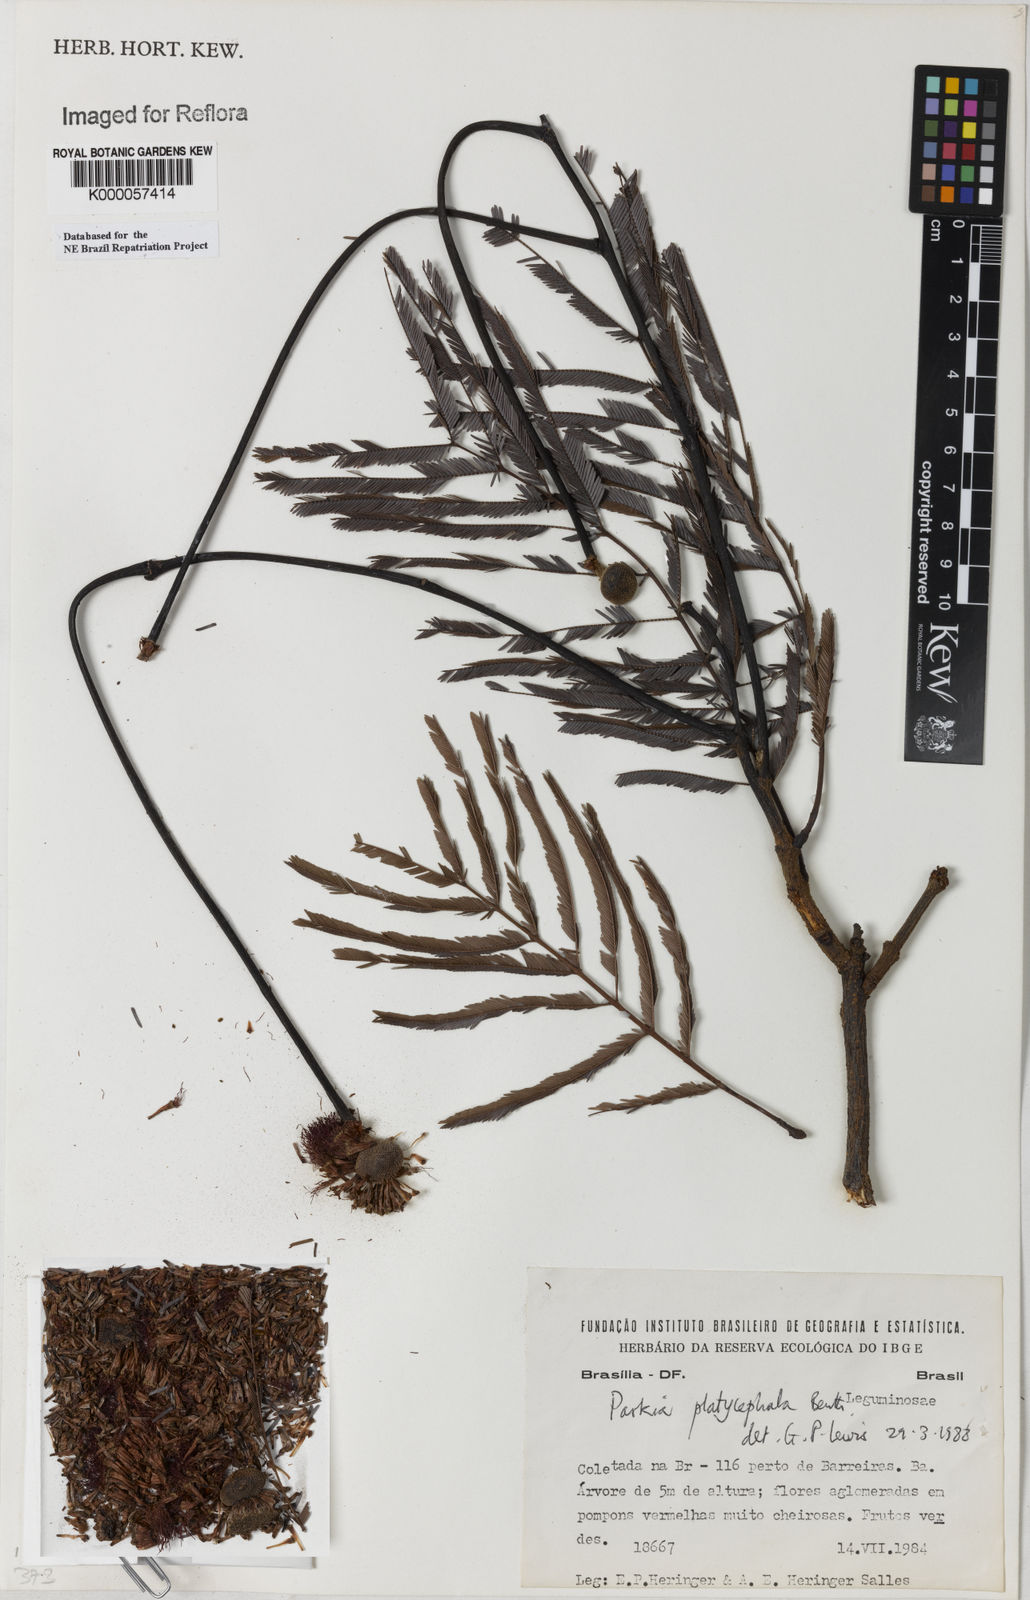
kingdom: Plantae
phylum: Tracheophyta
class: Magnoliopsida
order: Fabales
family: Fabaceae
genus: Parkia
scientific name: Parkia platycephala
